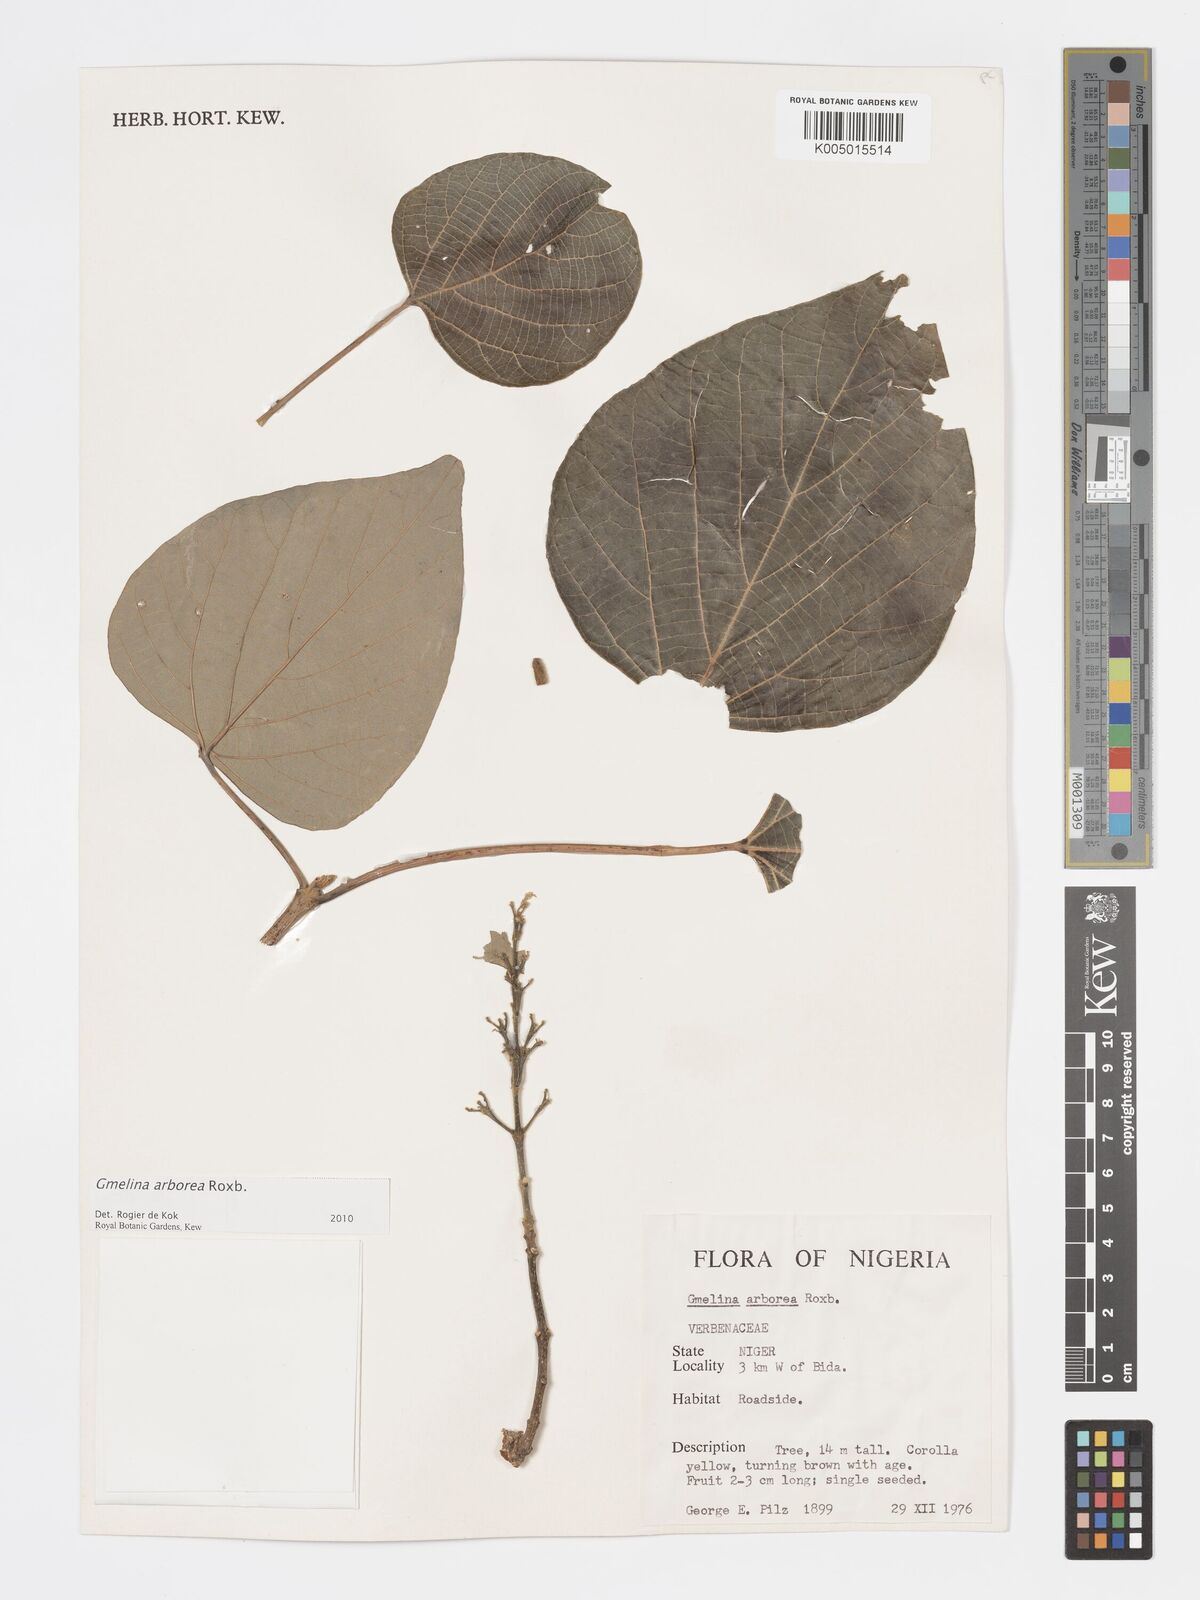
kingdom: Plantae
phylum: Tracheophyta
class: Magnoliopsida
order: Lamiales
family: Lamiaceae
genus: Gmelina
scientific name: Gmelina arborea
